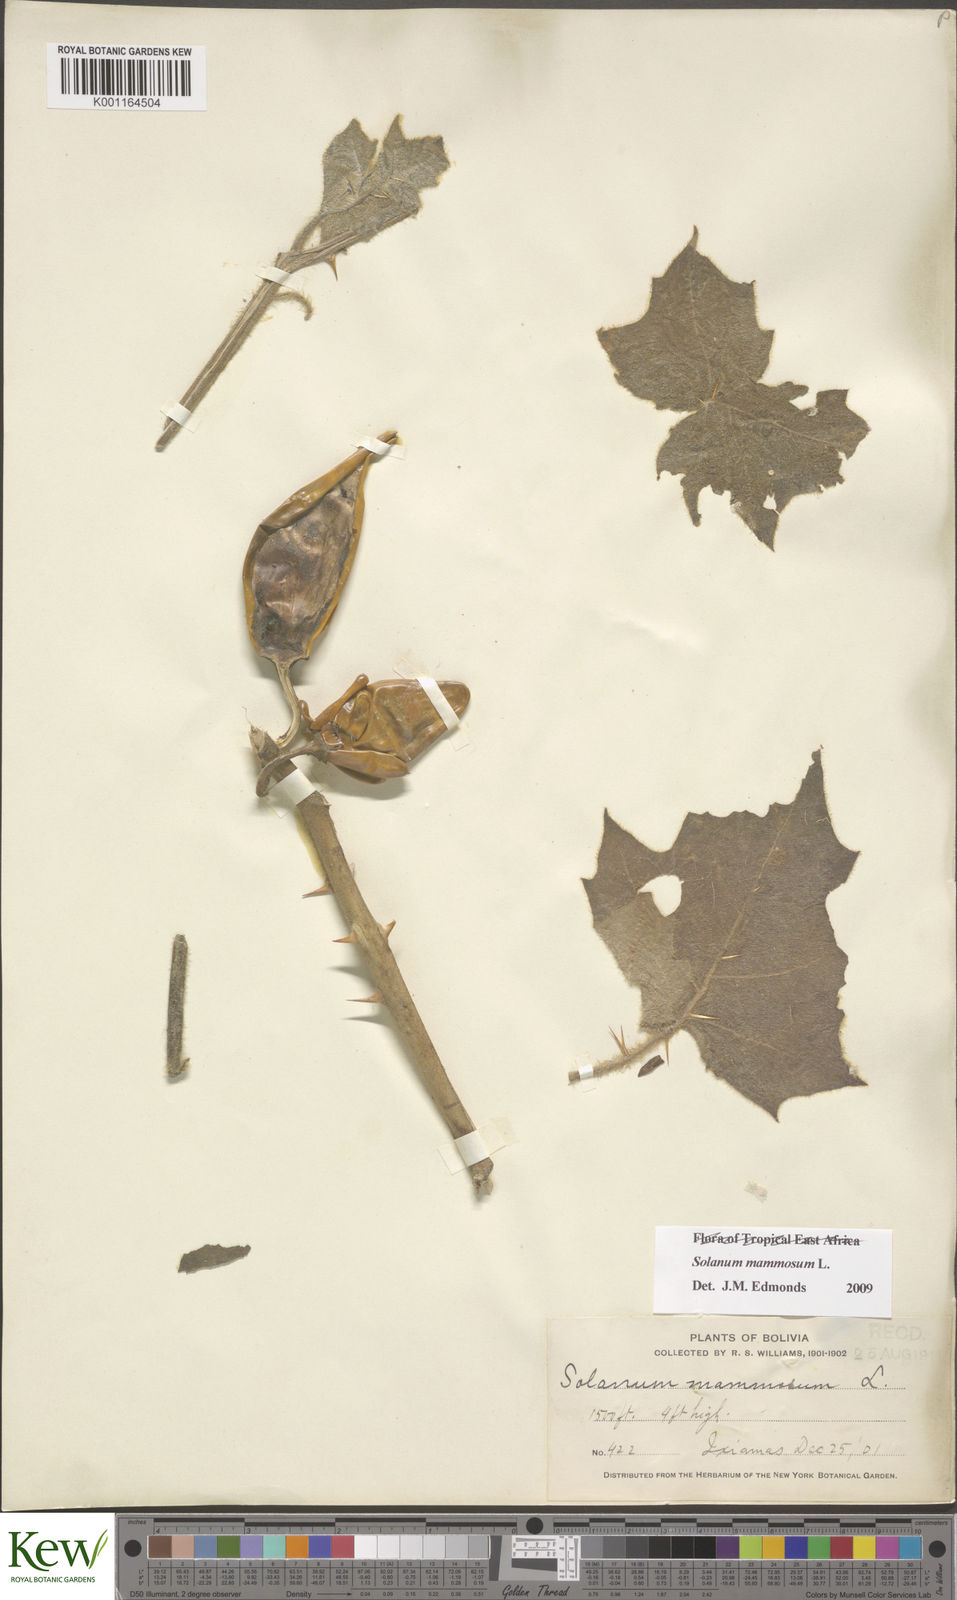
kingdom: Plantae
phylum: Tracheophyta
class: Magnoliopsida
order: Solanales
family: Solanaceae
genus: Solanum
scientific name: Solanum mammosum
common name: Nipple fruit
